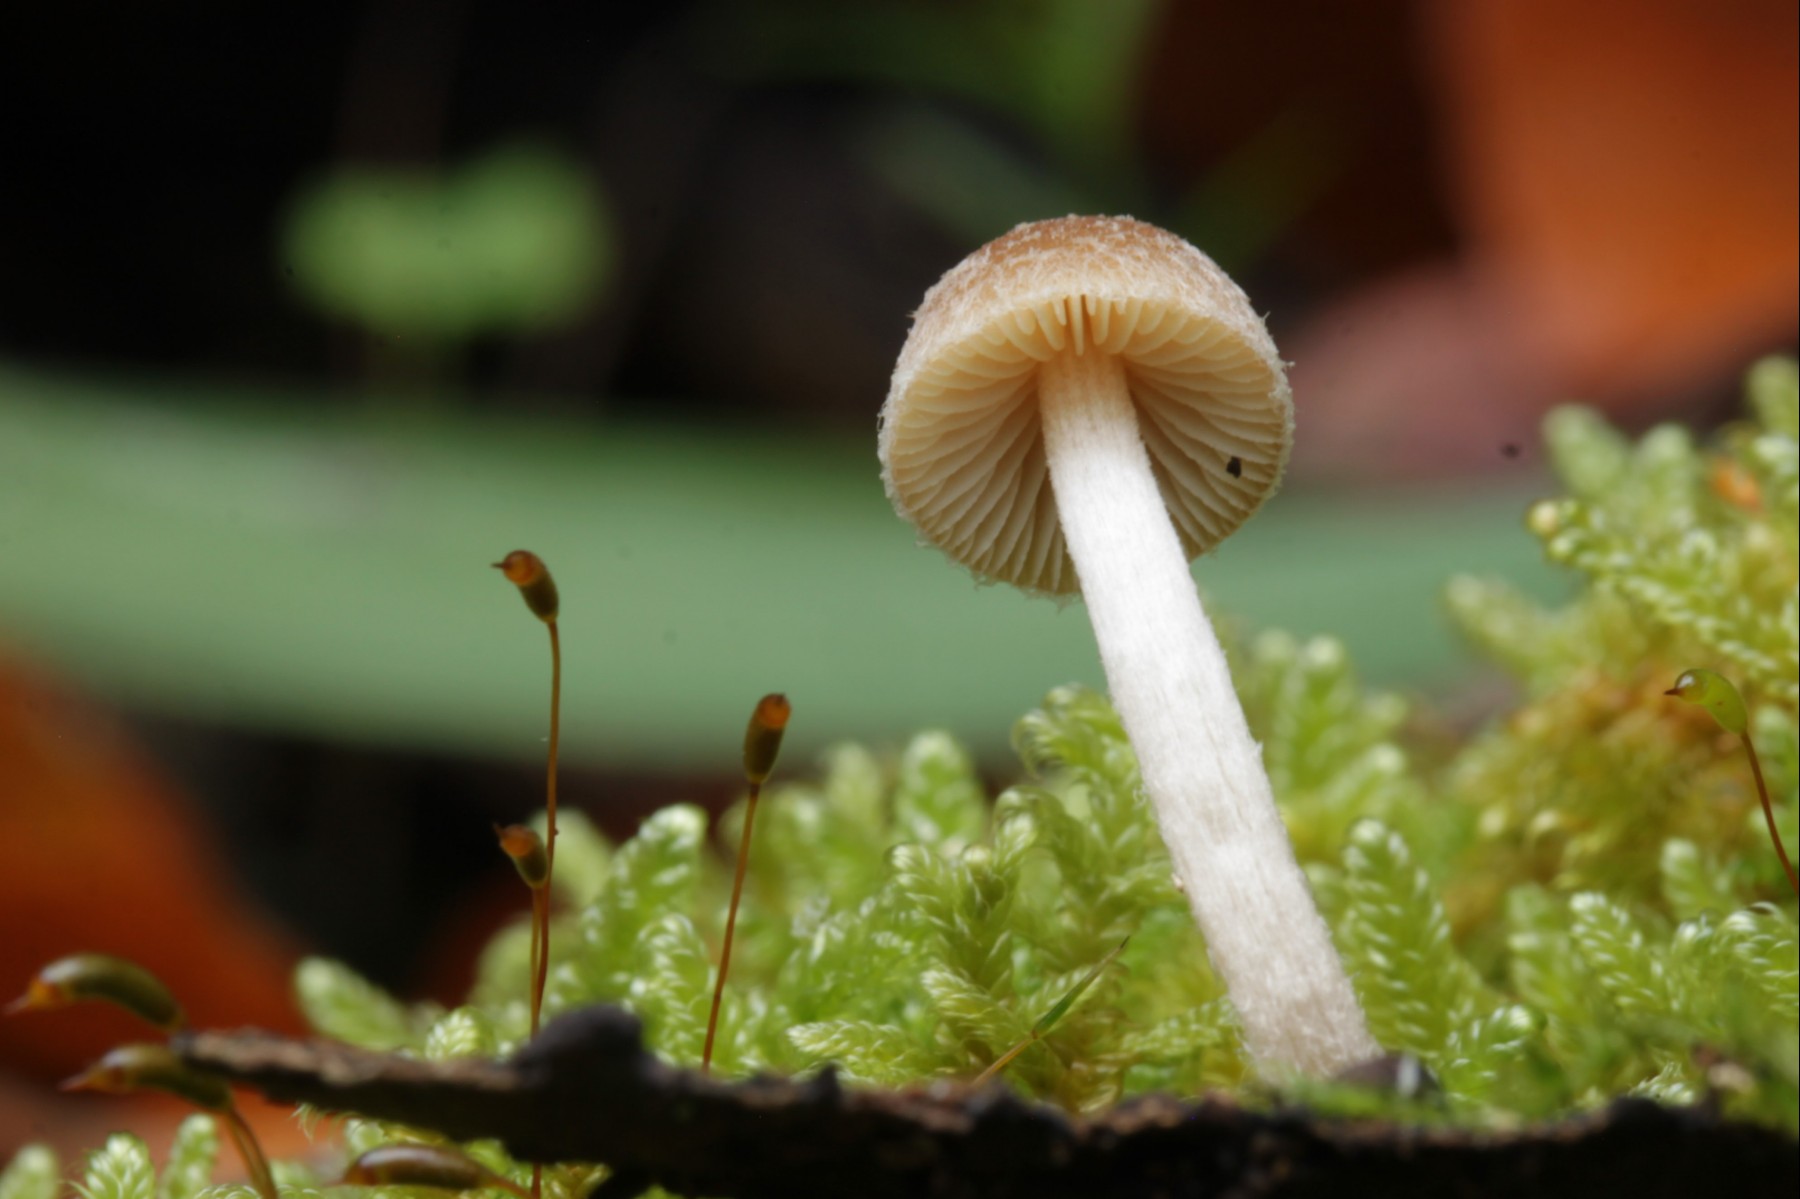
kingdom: Fungi
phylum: Basidiomycota
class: Agaricomycetes
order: Agaricales
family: Psathyrellaceae
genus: Psathyrella
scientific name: Psathyrella
